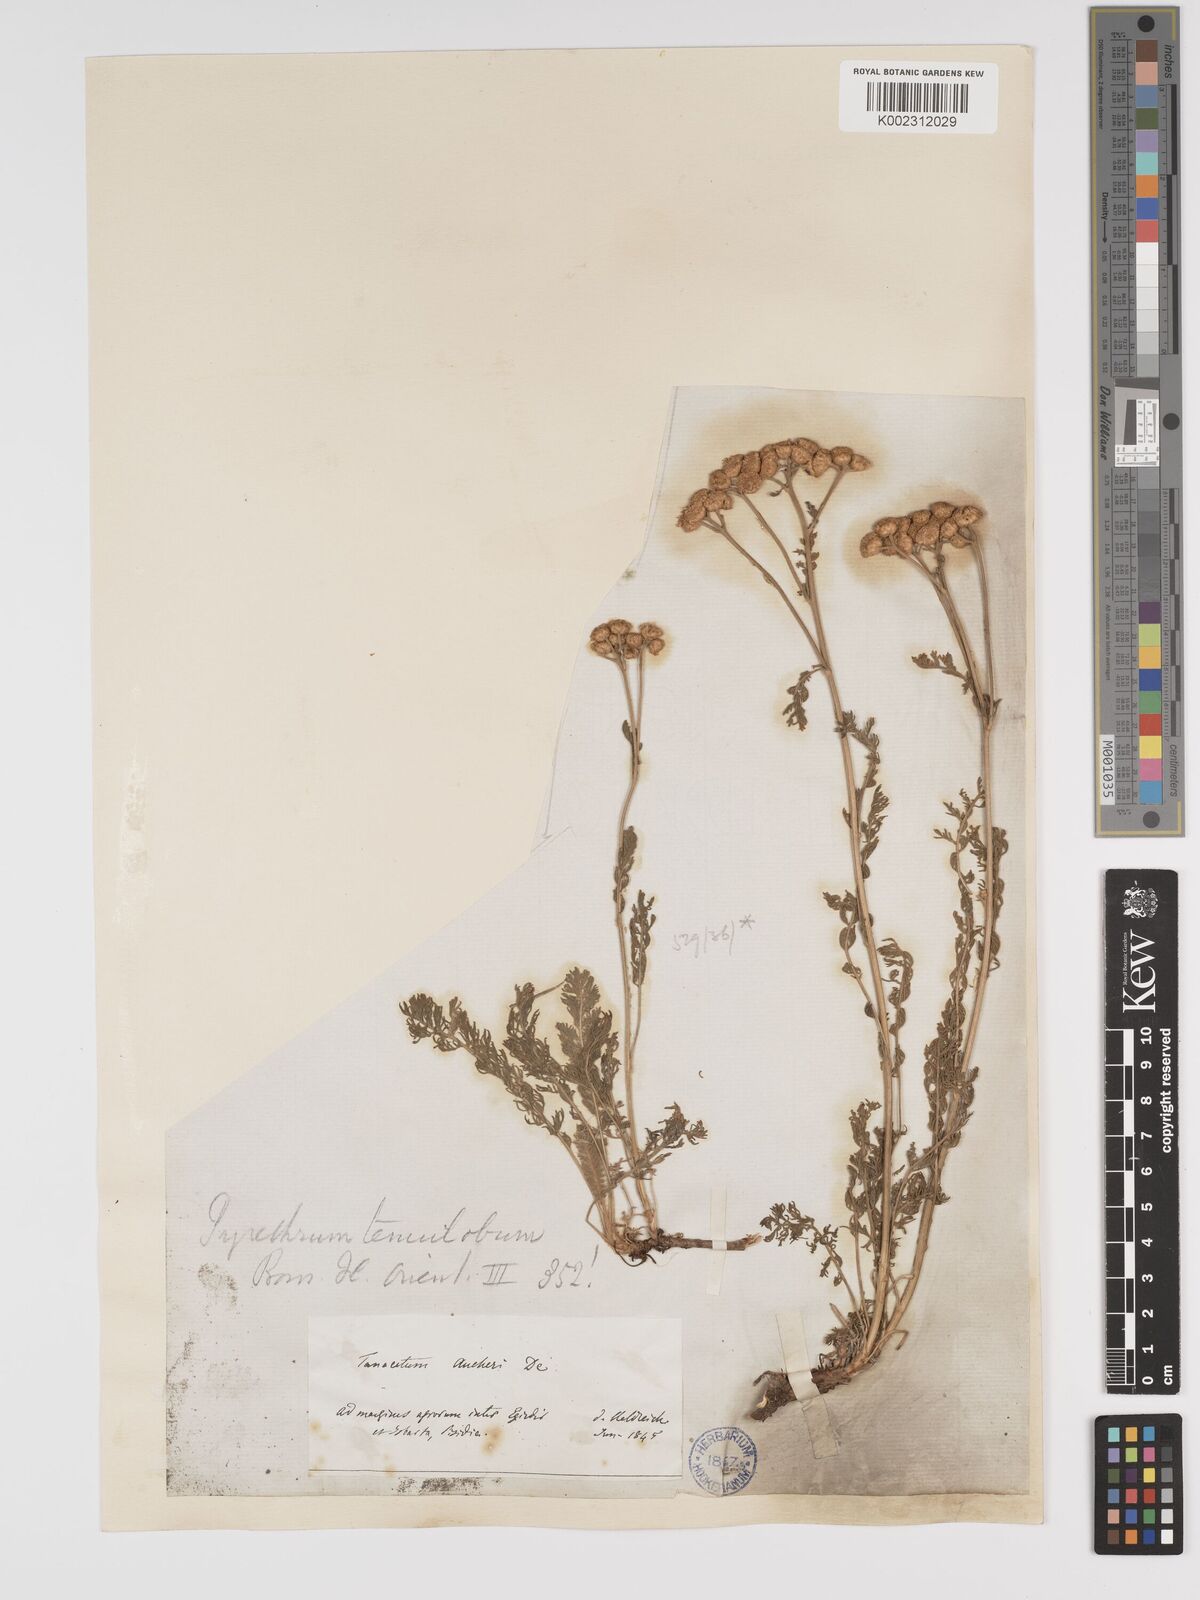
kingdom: Plantae
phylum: Tracheophyta
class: Magnoliopsida
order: Asterales
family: Asteraceae
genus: Tanacetum
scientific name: Tanacetum aucheri
